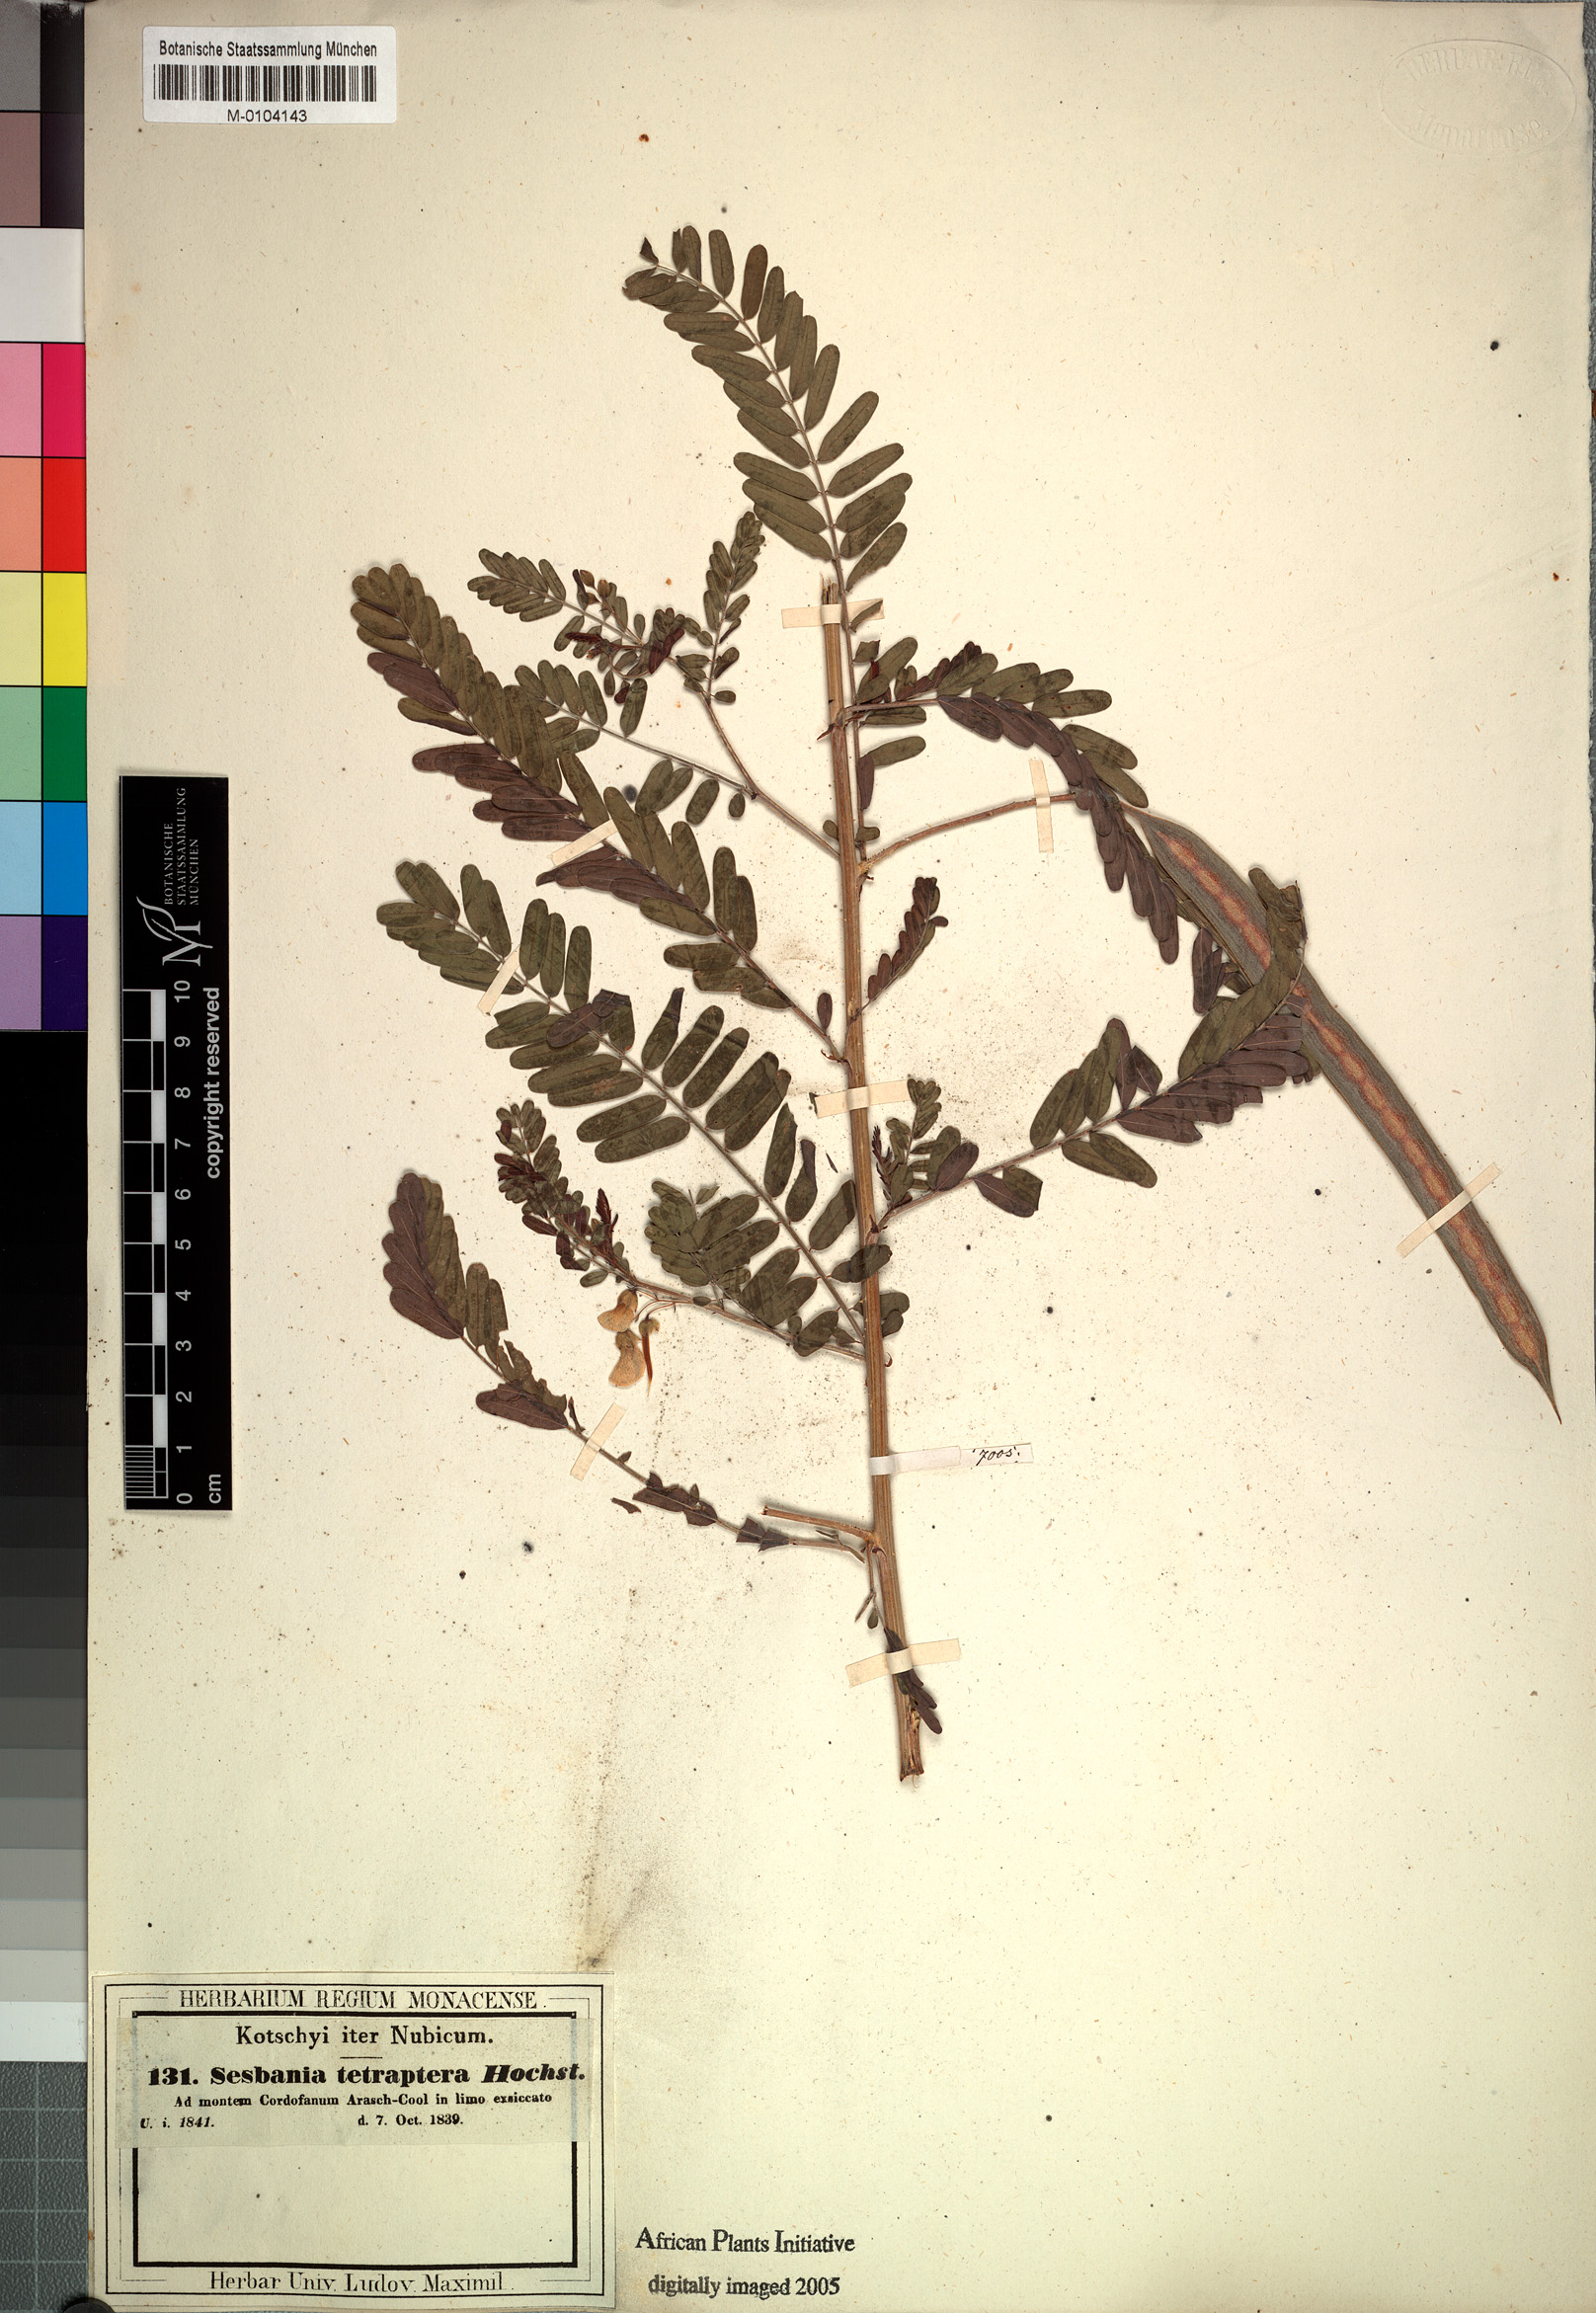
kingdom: Plantae
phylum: Tracheophyta
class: Magnoliopsida
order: Fabales
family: Fabaceae
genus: Sesbania
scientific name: Sesbania tetraptera
